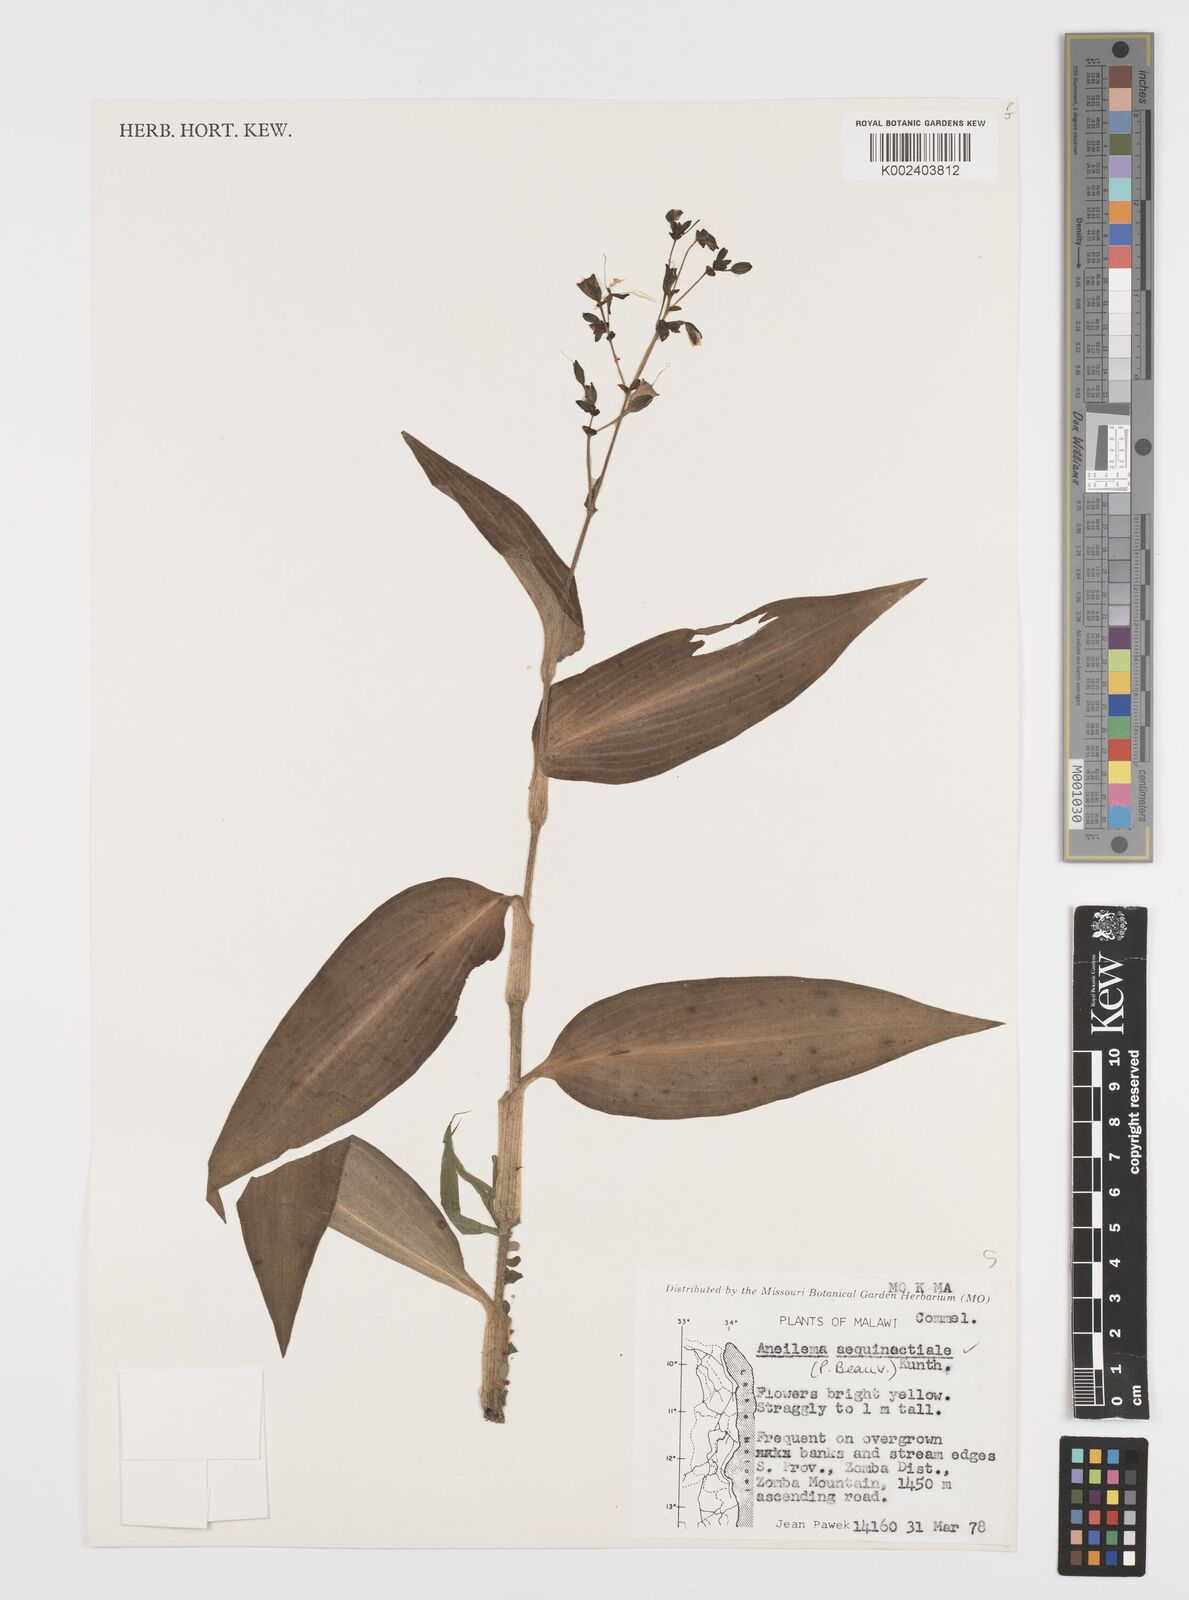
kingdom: Plantae
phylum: Tracheophyta
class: Liliopsida
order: Commelinales
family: Commelinaceae
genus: Aneilema
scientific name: Aneilema aequinoctiale
